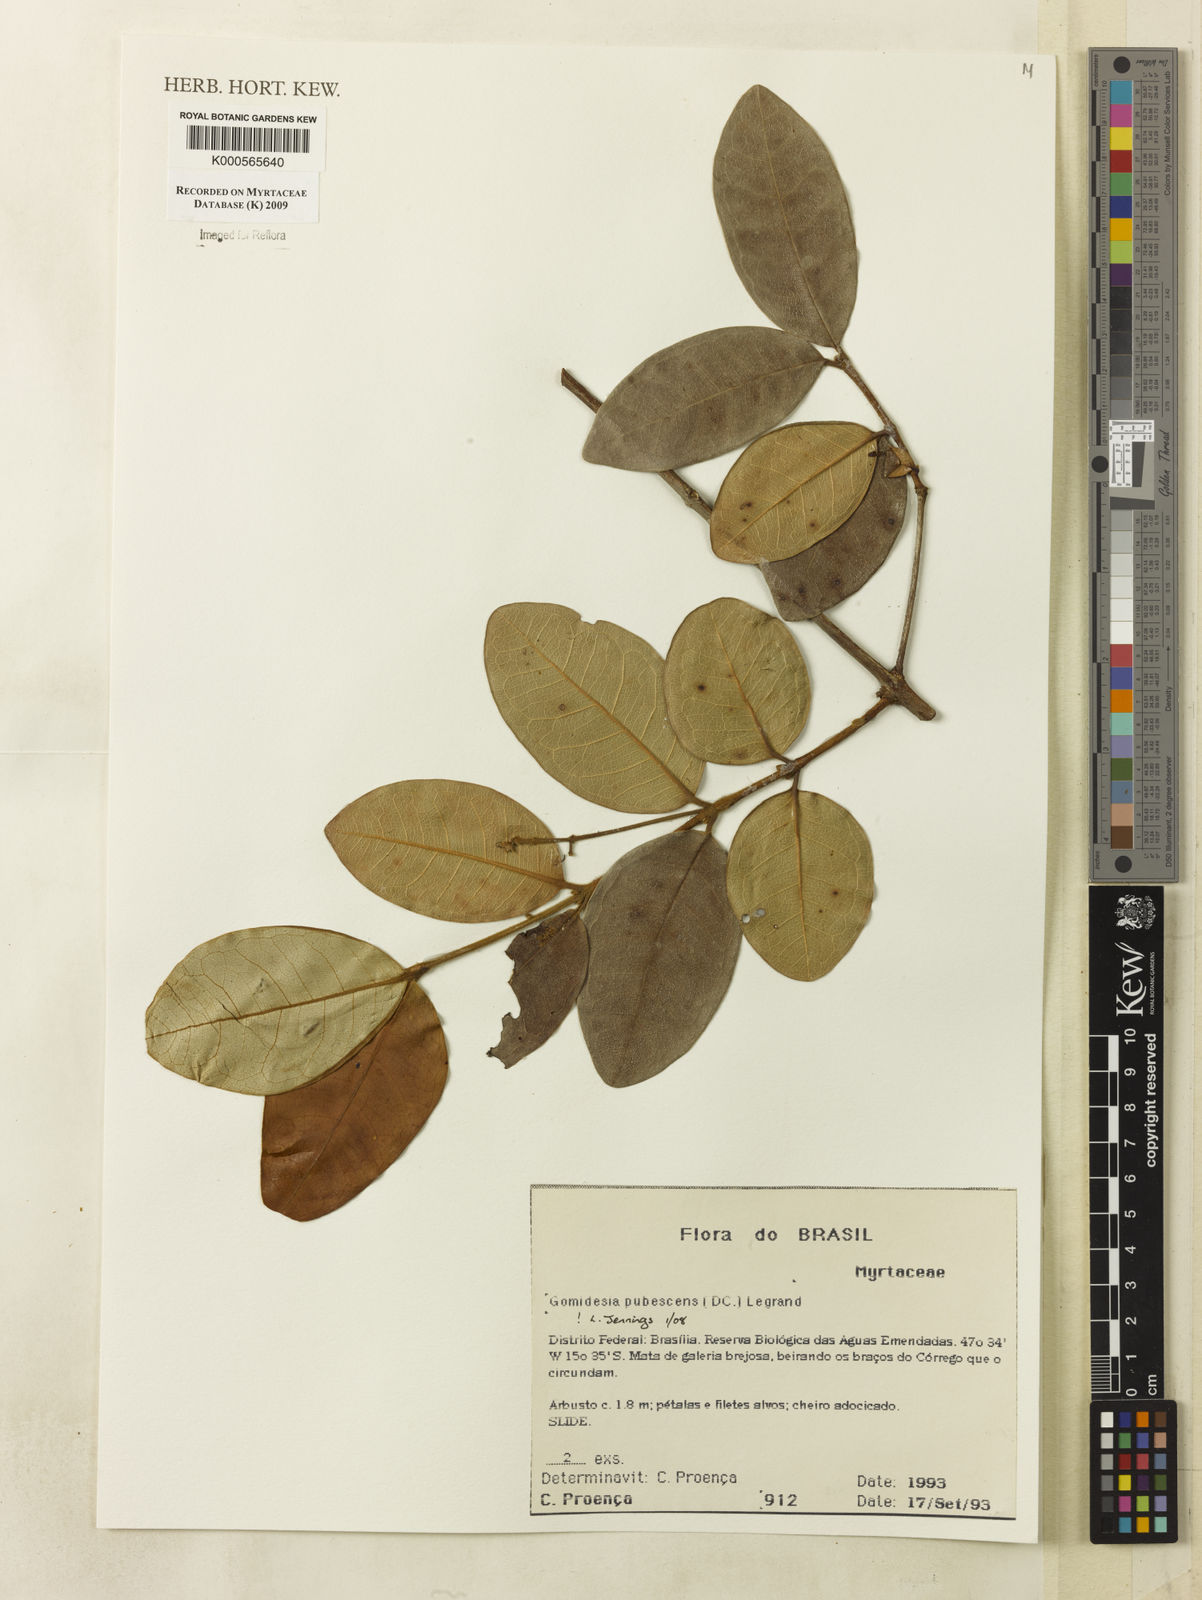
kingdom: Plantae
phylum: Tracheophyta
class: Magnoliopsida
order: Myrtales
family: Myrtaceae
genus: Myrcia
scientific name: Myrcia pubescens
